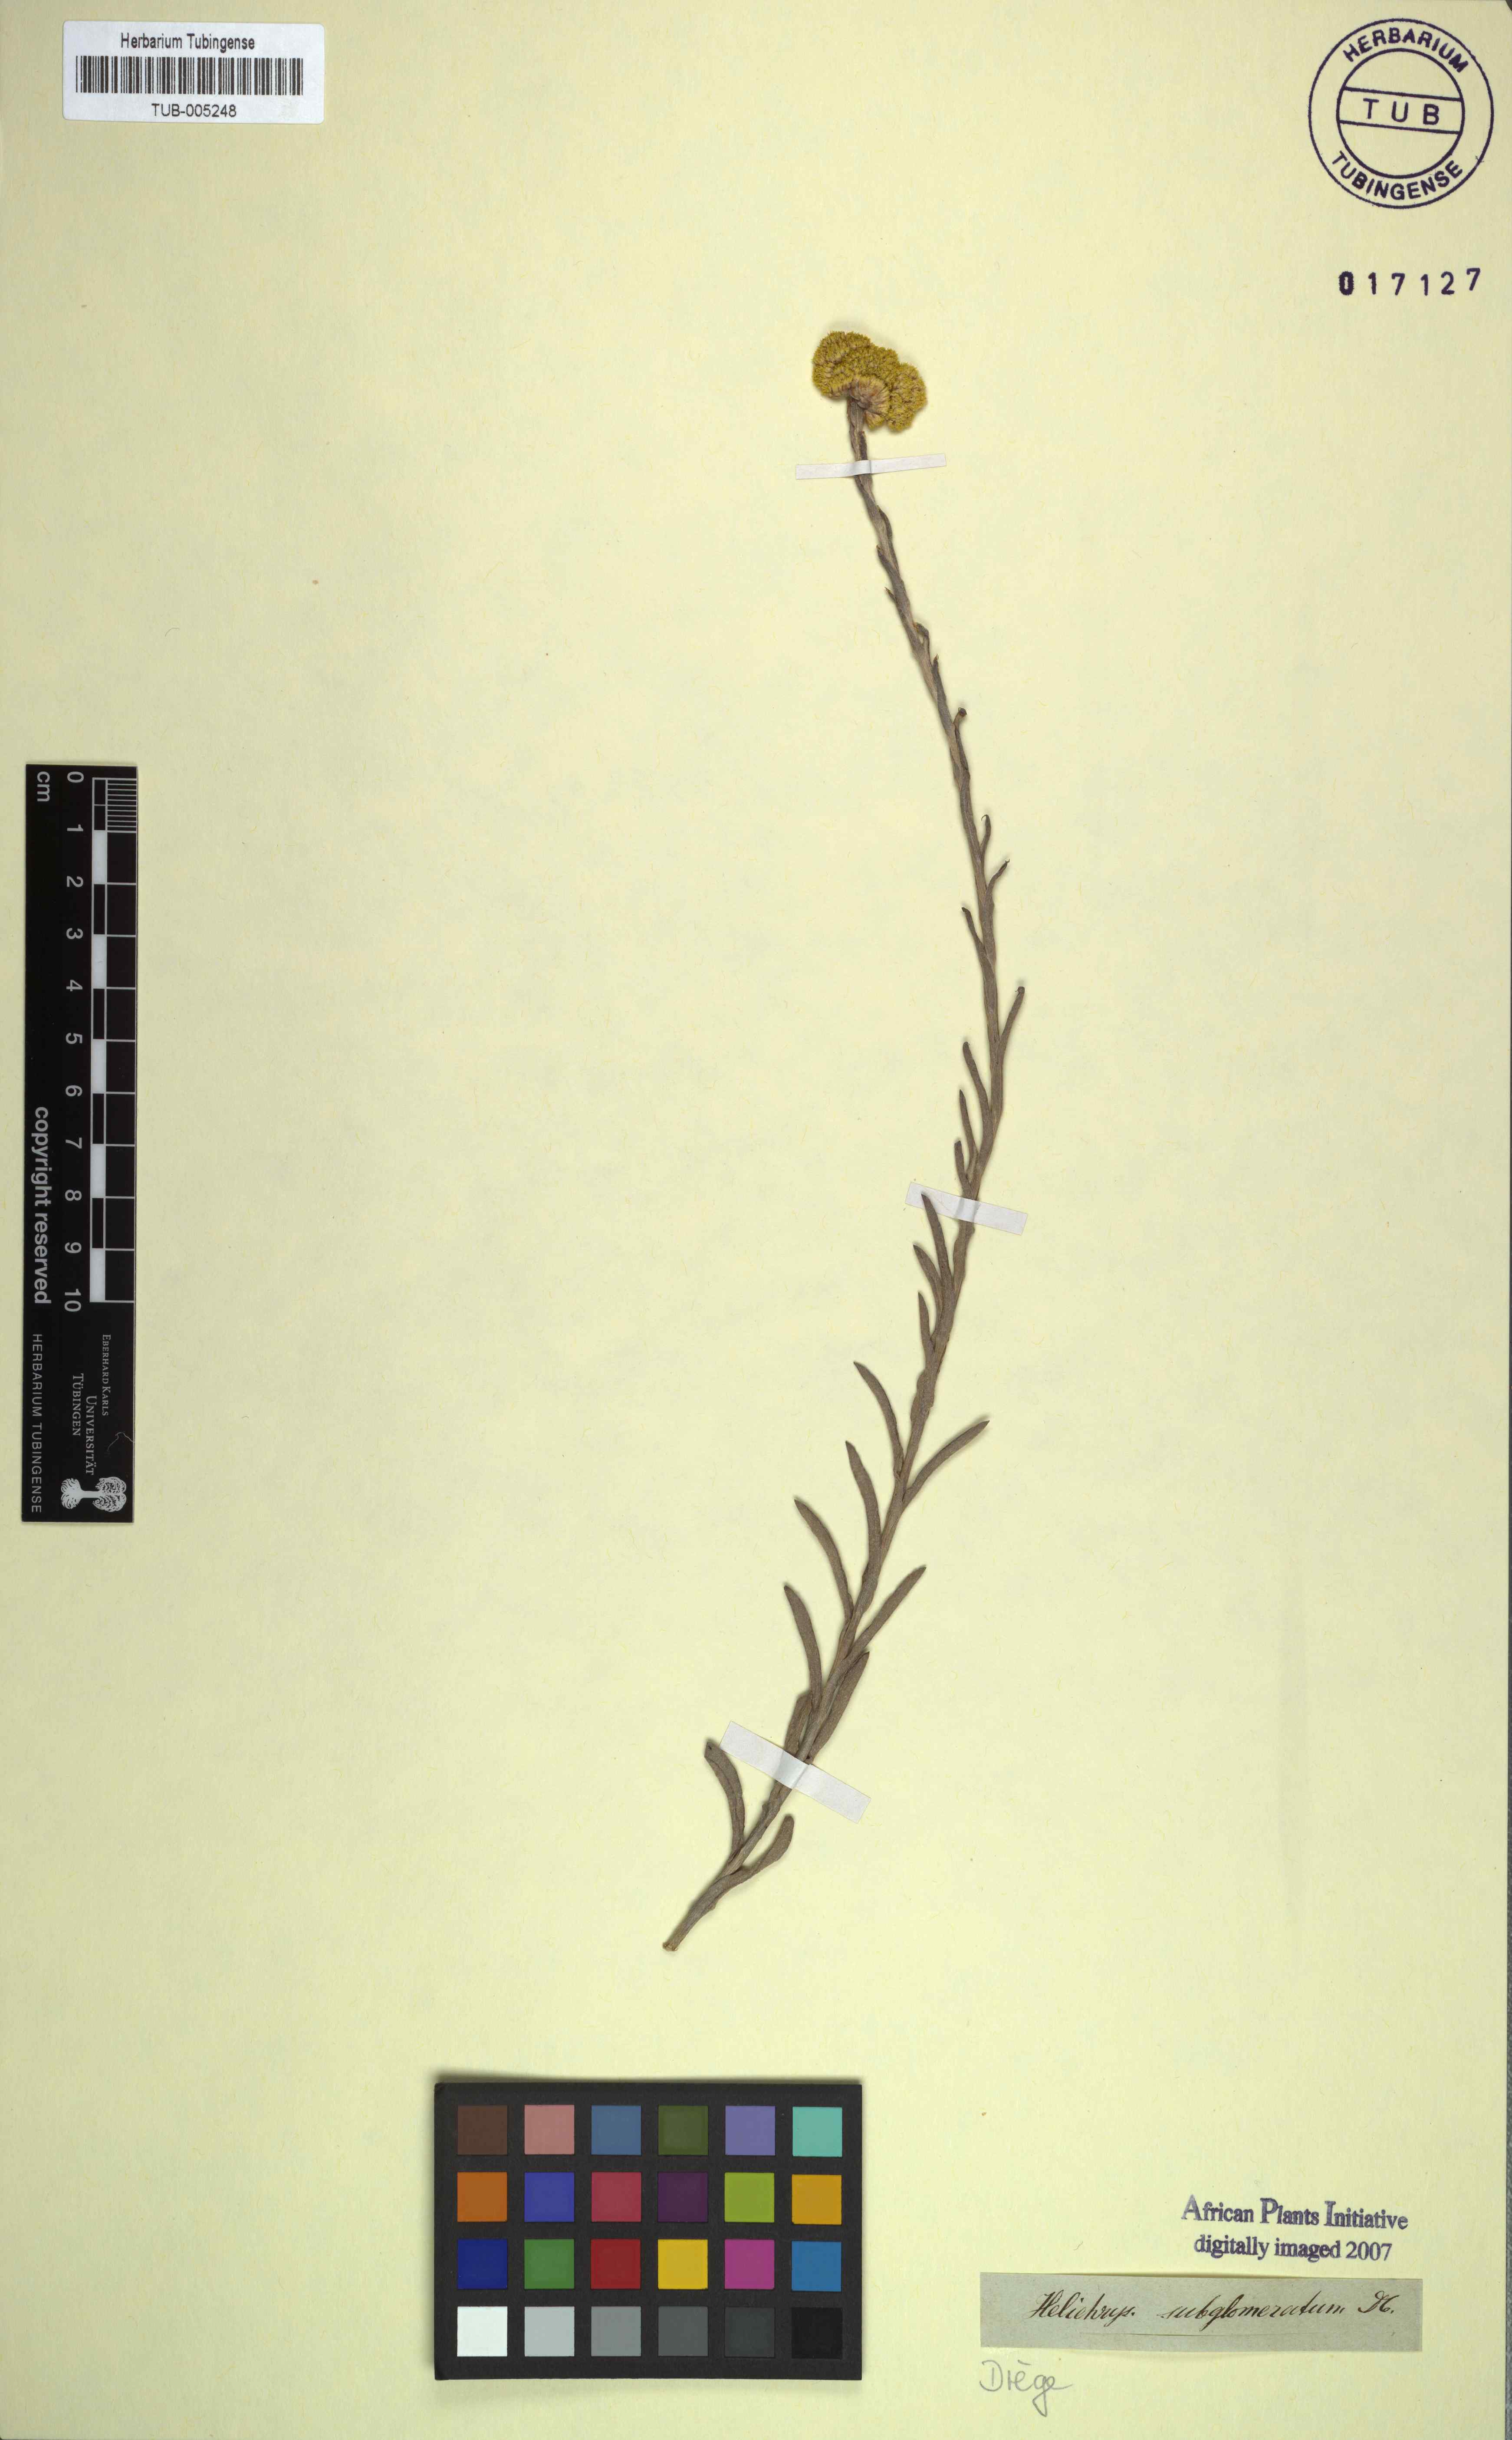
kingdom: Plantae
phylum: Tracheophyta
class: Magnoliopsida
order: Asterales
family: Asteraceae
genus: Helichrysum
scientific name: Helichrysum subglomeratum
